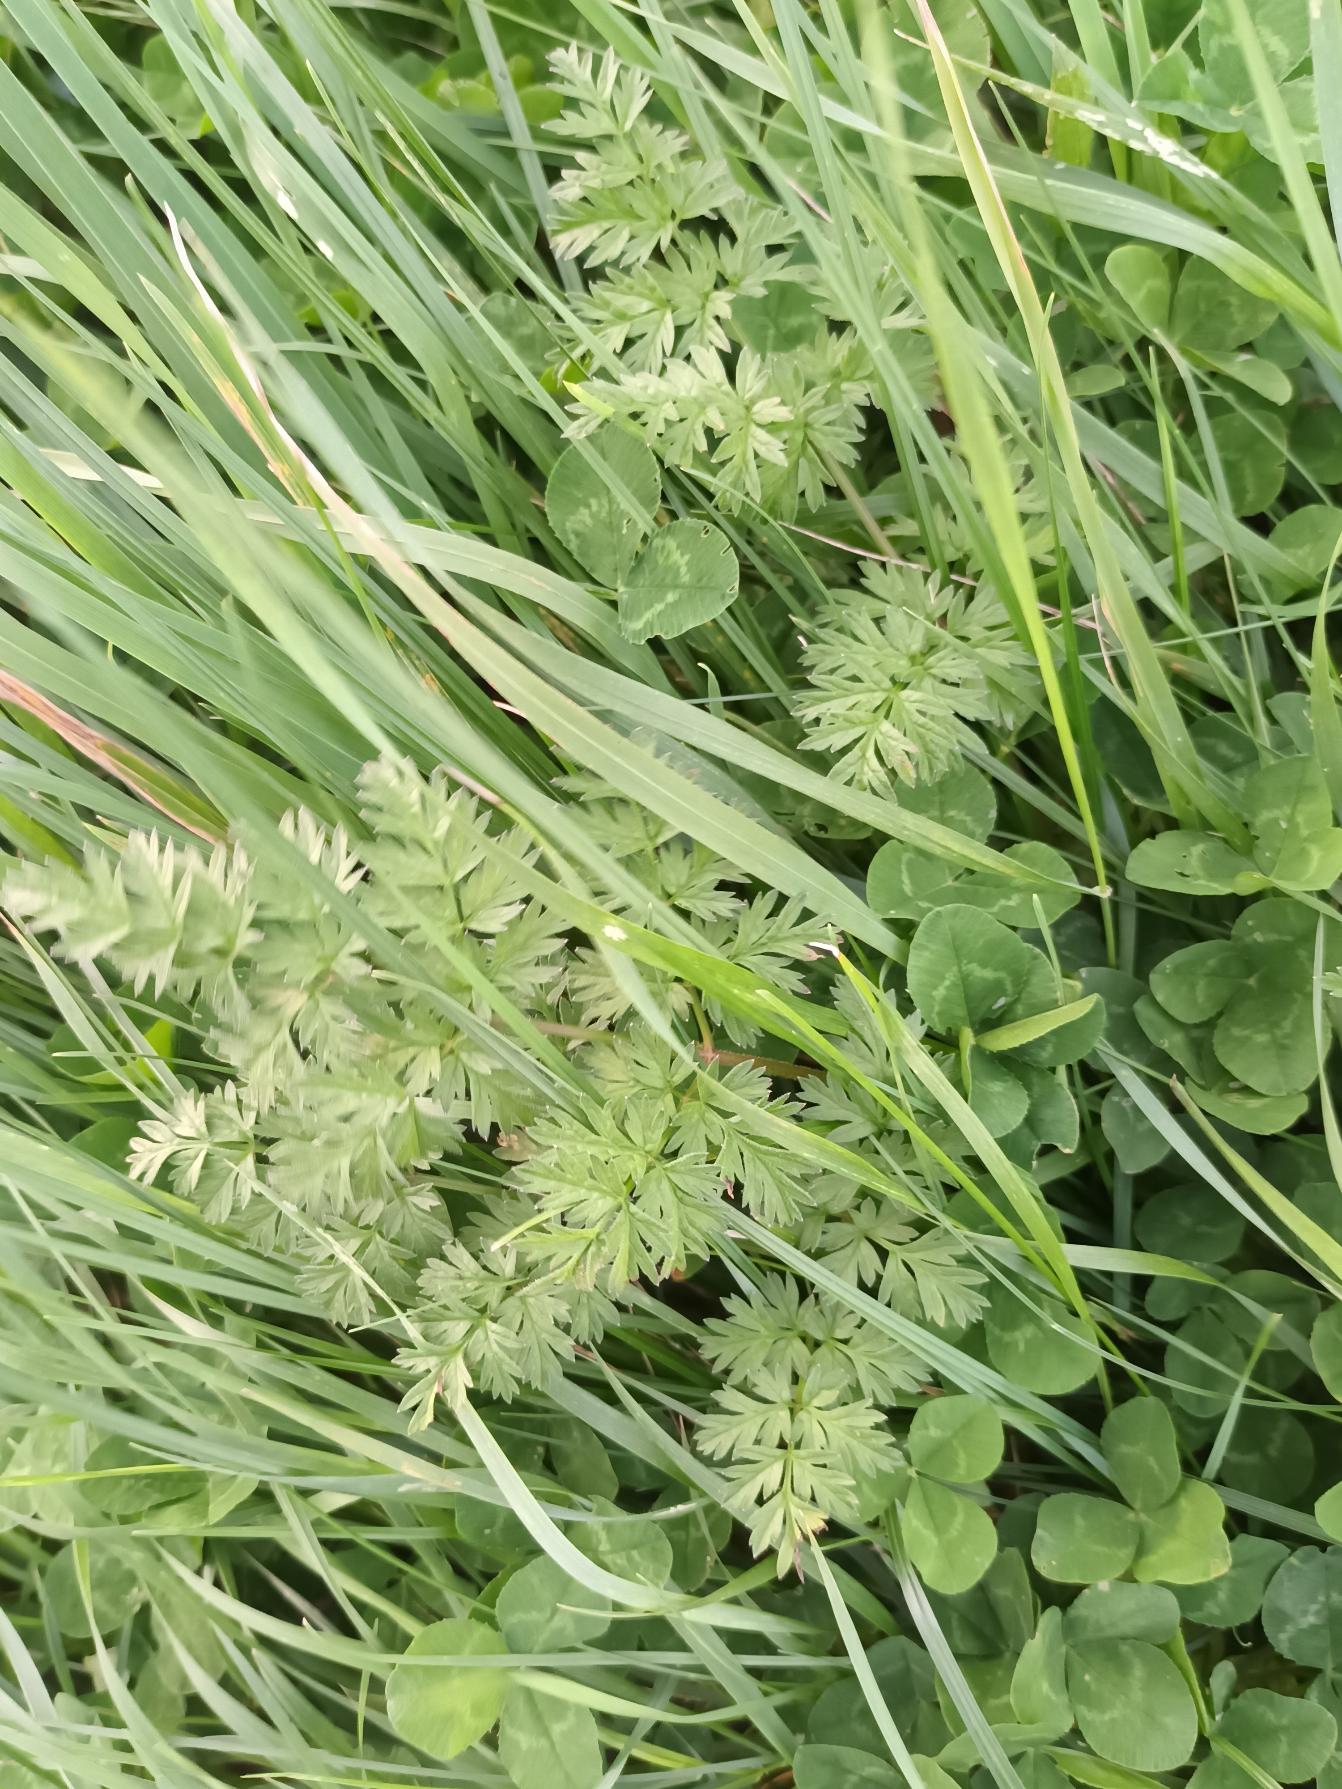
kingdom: Plantae
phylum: Tracheophyta
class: Magnoliopsida
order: Apiales
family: Apiaceae
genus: Anthriscus
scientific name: Anthriscus sylvestris
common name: Vild kørvel
